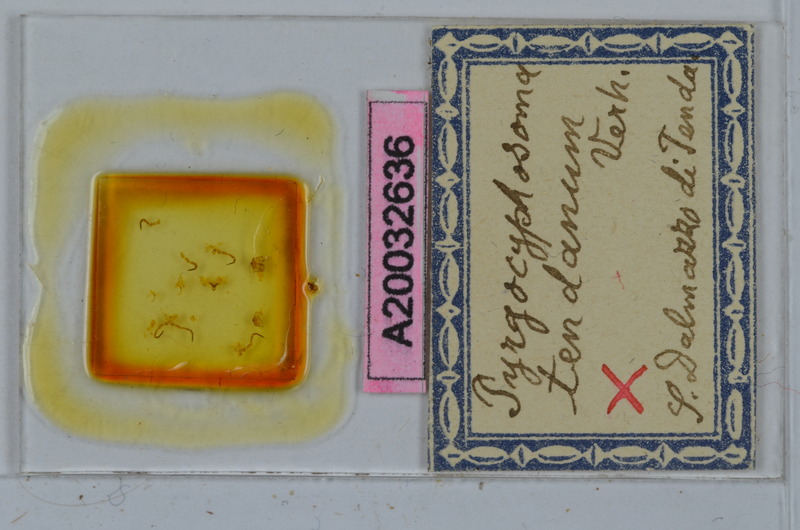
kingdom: Animalia
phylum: Arthropoda
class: Diplopoda
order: Chordeumatida
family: Craspedosomatidae
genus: Pyrgocyphosoma
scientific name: Pyrgocyphosoma tendanum
